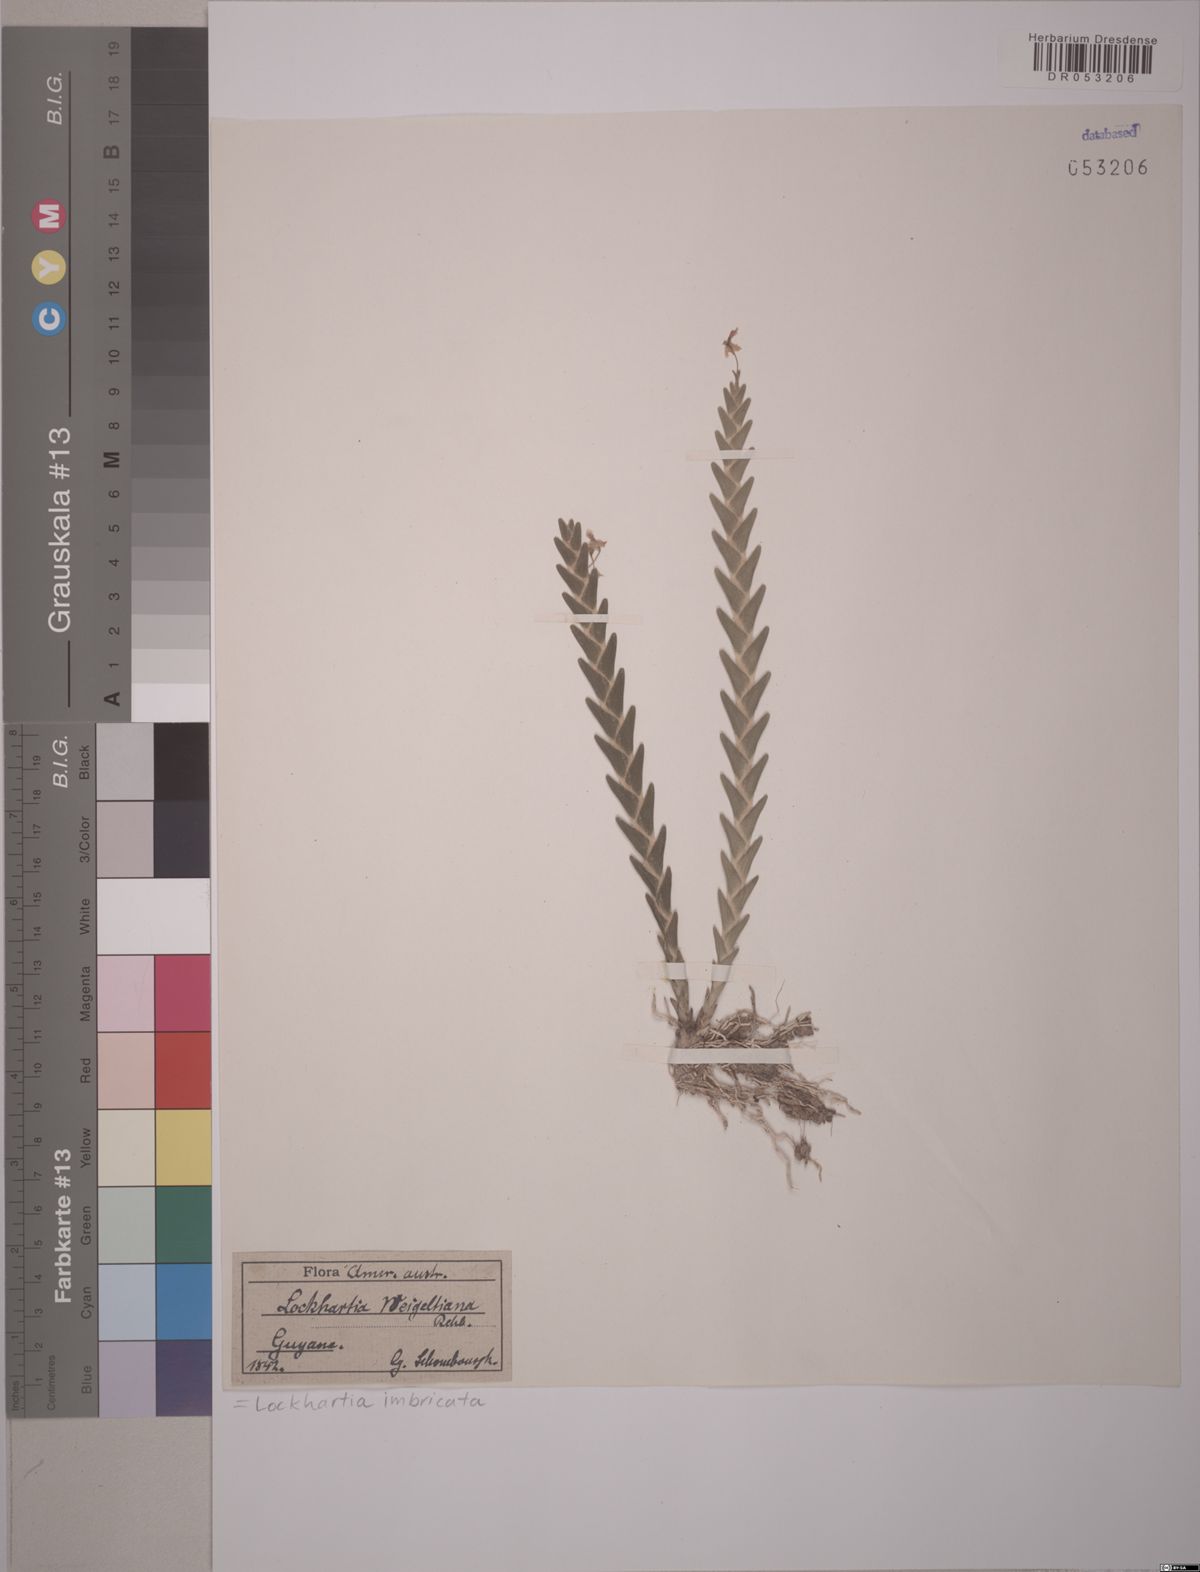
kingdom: Plantae
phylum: Tracheophyta
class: Liliopsida
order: Asparagales
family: Orchidaceae
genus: Lockhartia
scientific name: Lockhartia imbricata
